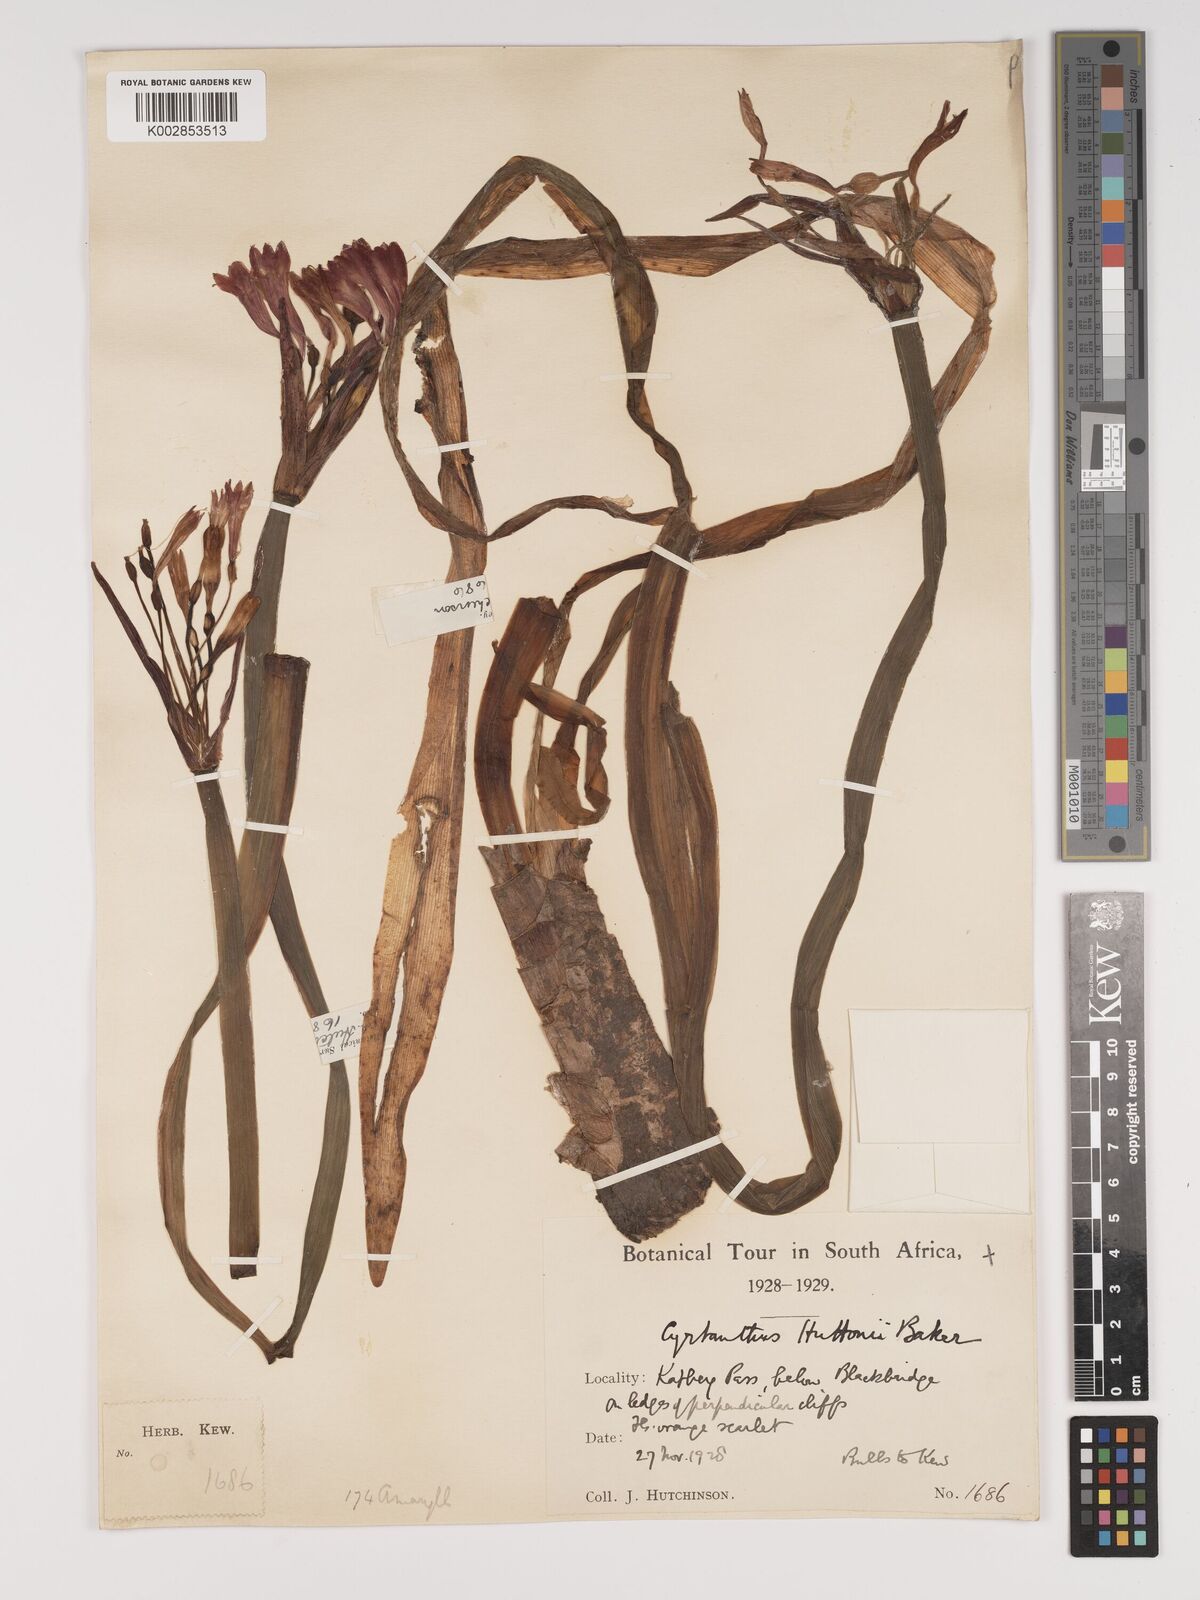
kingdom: Plantae
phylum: Tracheophyta
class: Liliopsida
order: Asparagales
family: Amaryllidaceae
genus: Cyrtanthus
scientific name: Cyrtanthus huttonii
